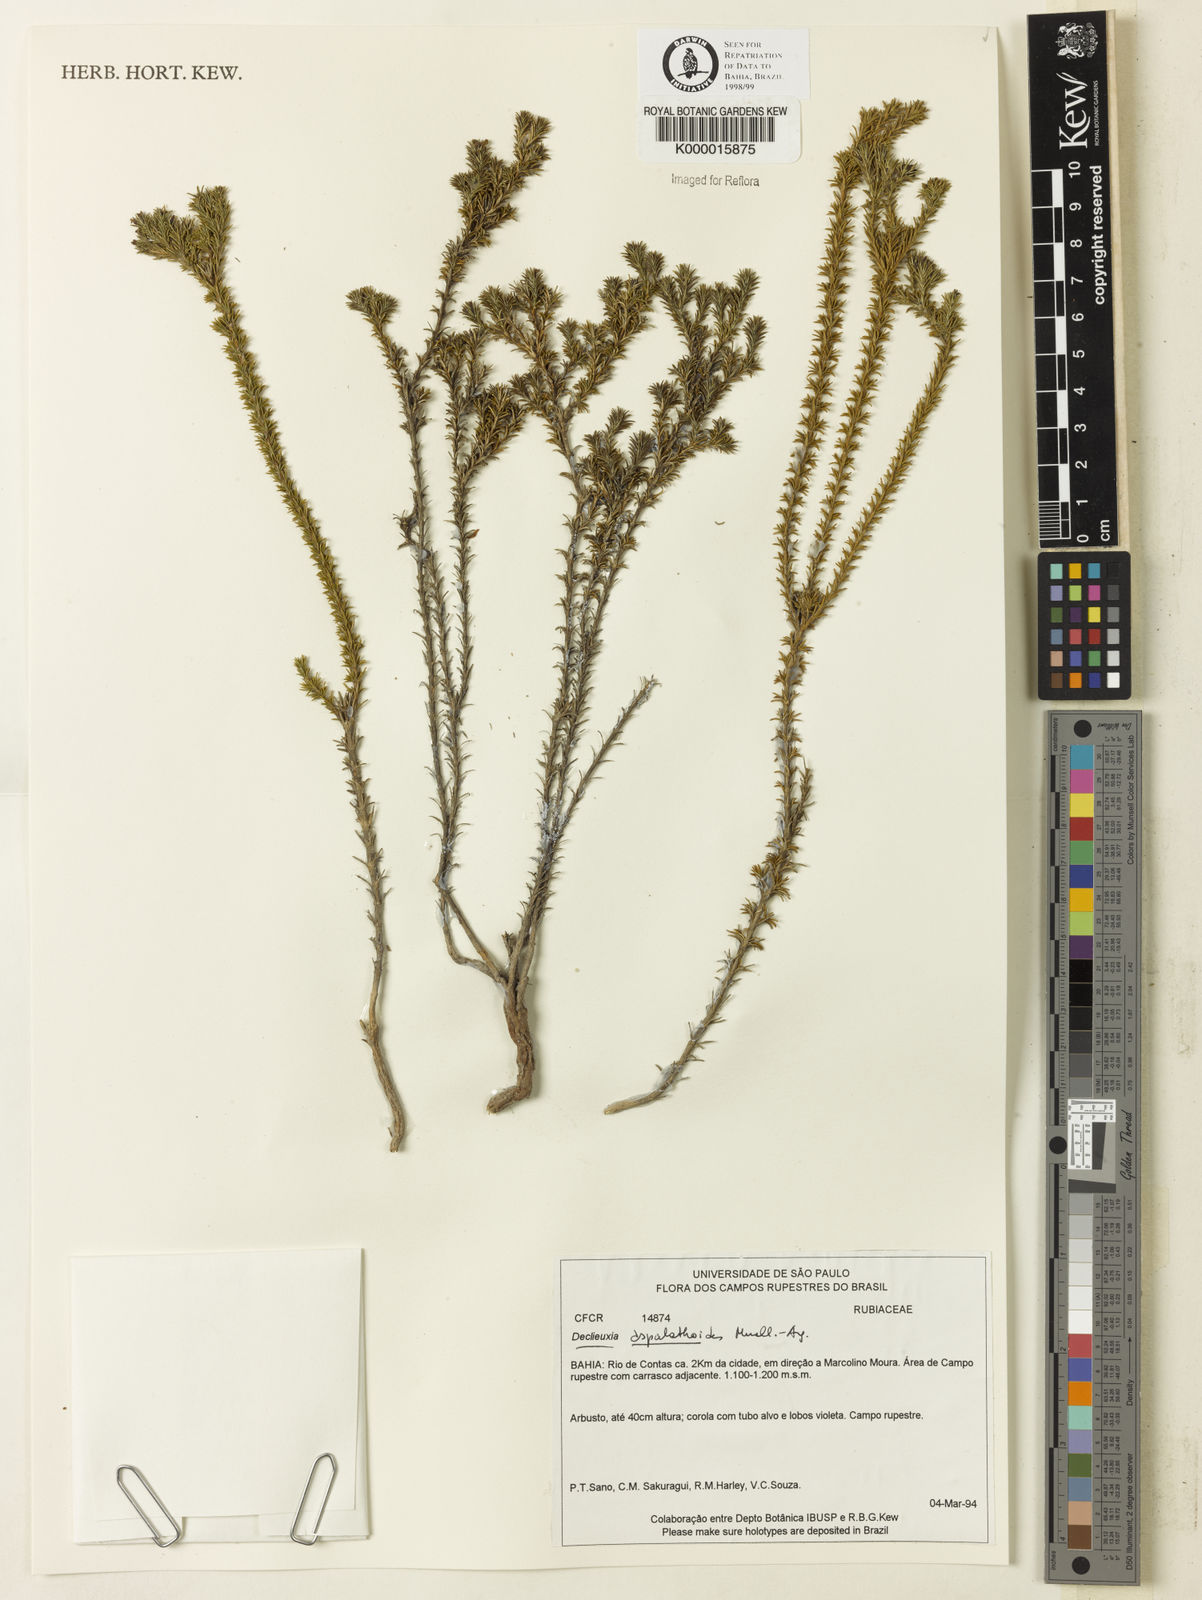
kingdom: Plantae
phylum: Tracheophyta
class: Magnoliopsida
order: Gentianales
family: Rubiaceae
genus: Declieuxia
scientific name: Declieuxia aspalathoides
